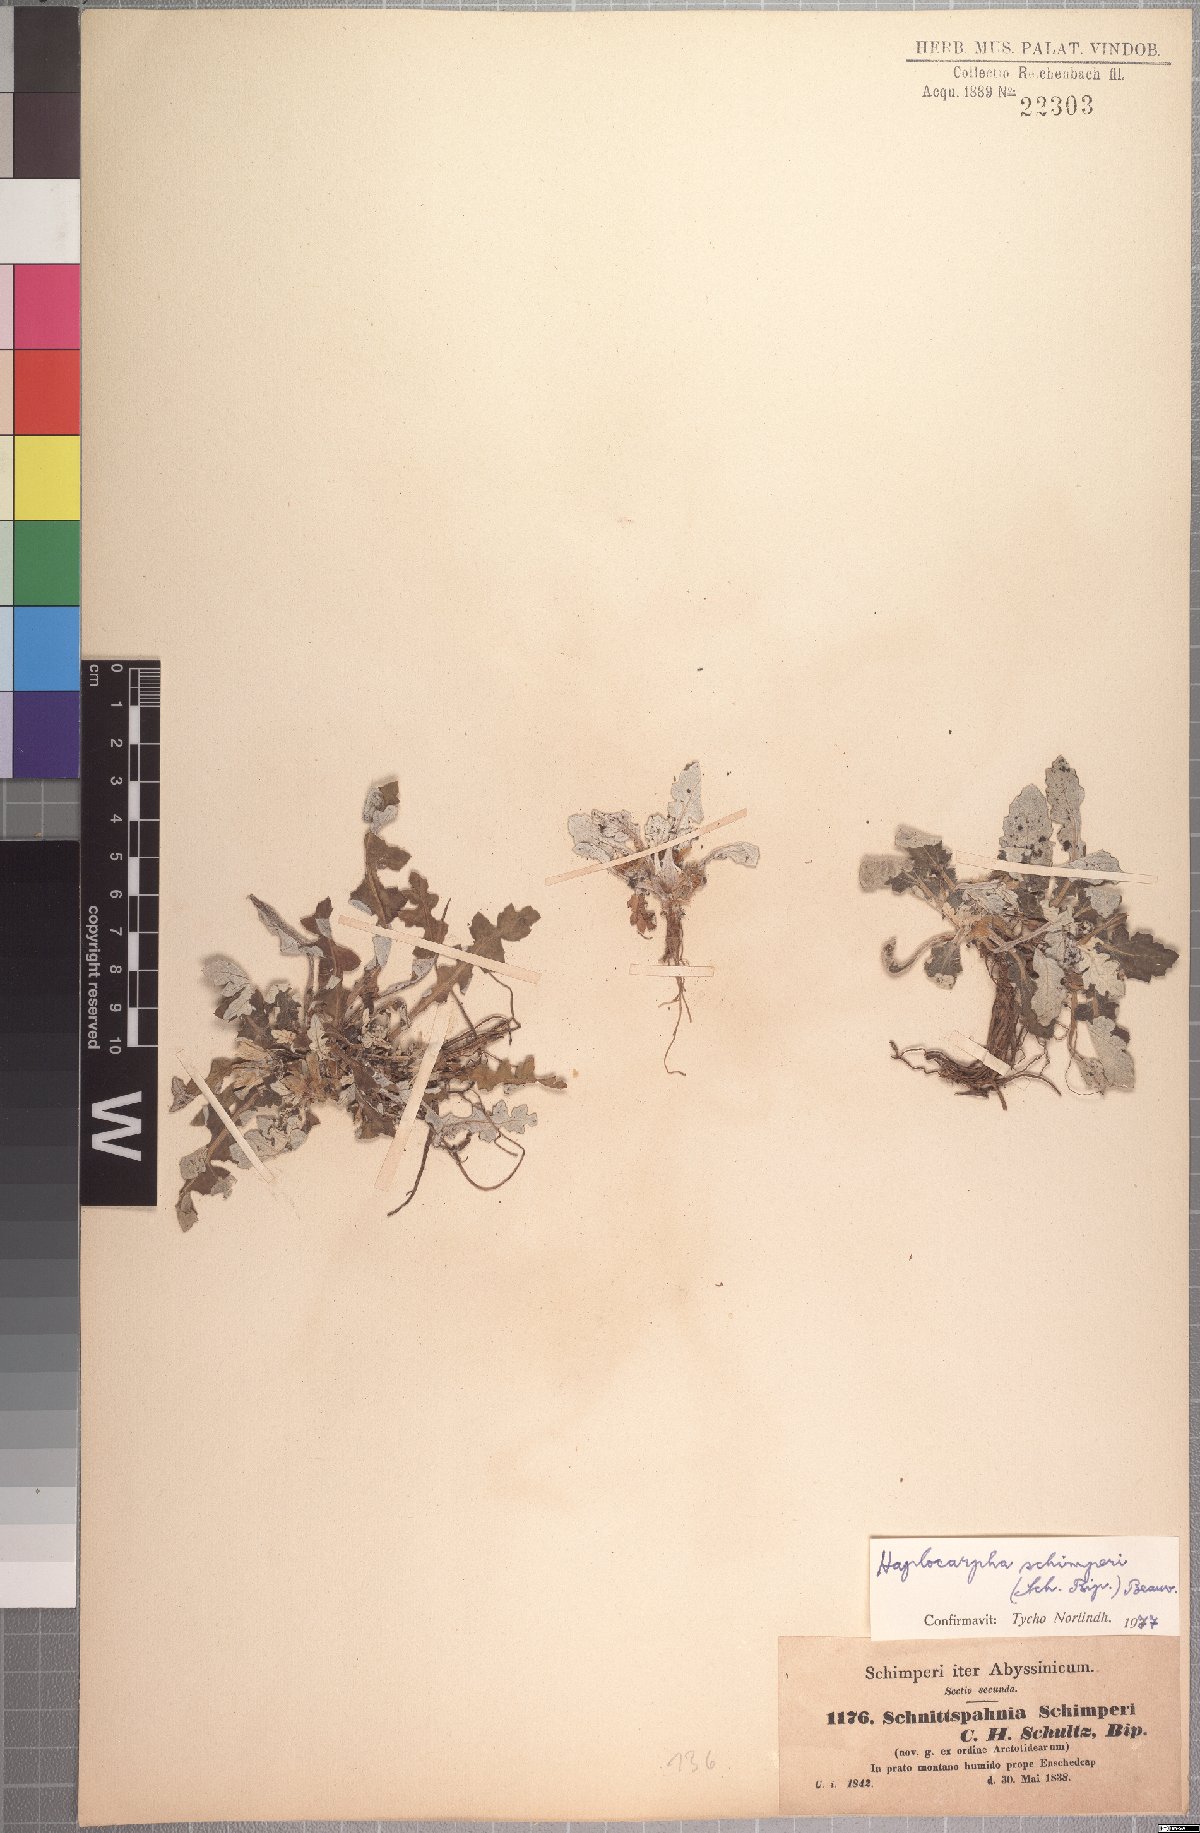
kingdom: Plantae
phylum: Tracheophyta
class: Magnoliopsida
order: Asterales
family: Asteraceae
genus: Haplocarpha
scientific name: Haplocarpha schimperi
